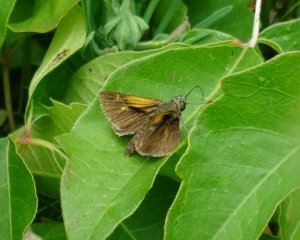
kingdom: Animalia
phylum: Arthropoda
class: Insecta
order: Lepidoptera
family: Hesperiidae
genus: Polites
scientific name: Polites themistocles
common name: Tawny-edged Skipper
